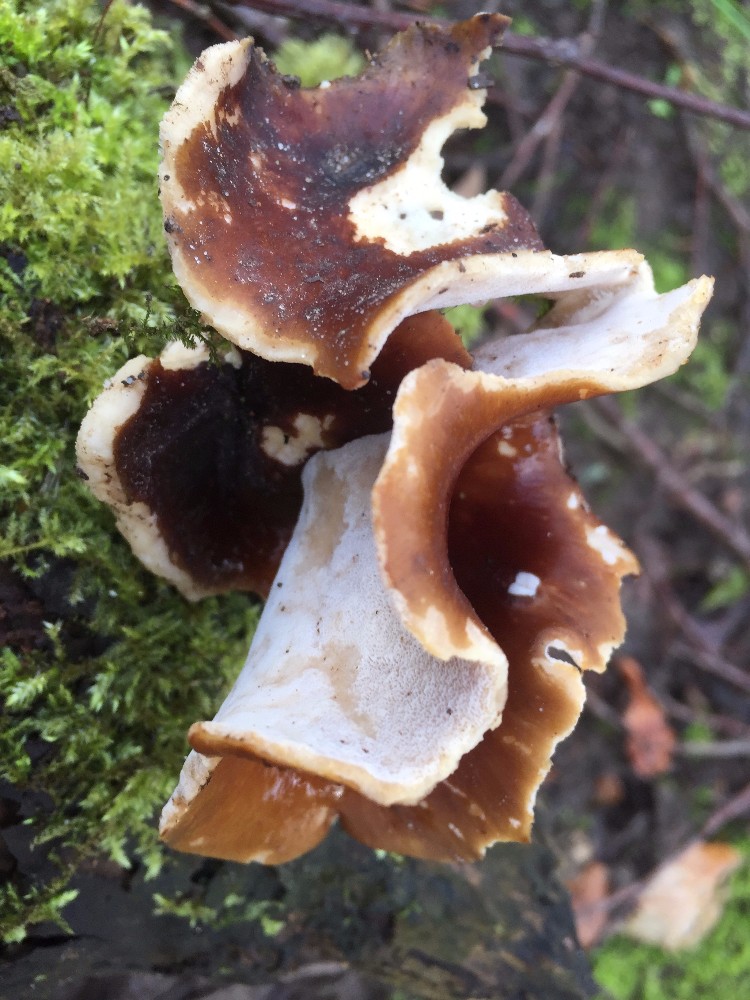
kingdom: Fungi
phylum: Basidiomycota
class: Agaricomycetes
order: Polyporales
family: Polyporaceae
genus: Picipes
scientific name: Picipes badius
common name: kastaniebrun stilkporesvamp
